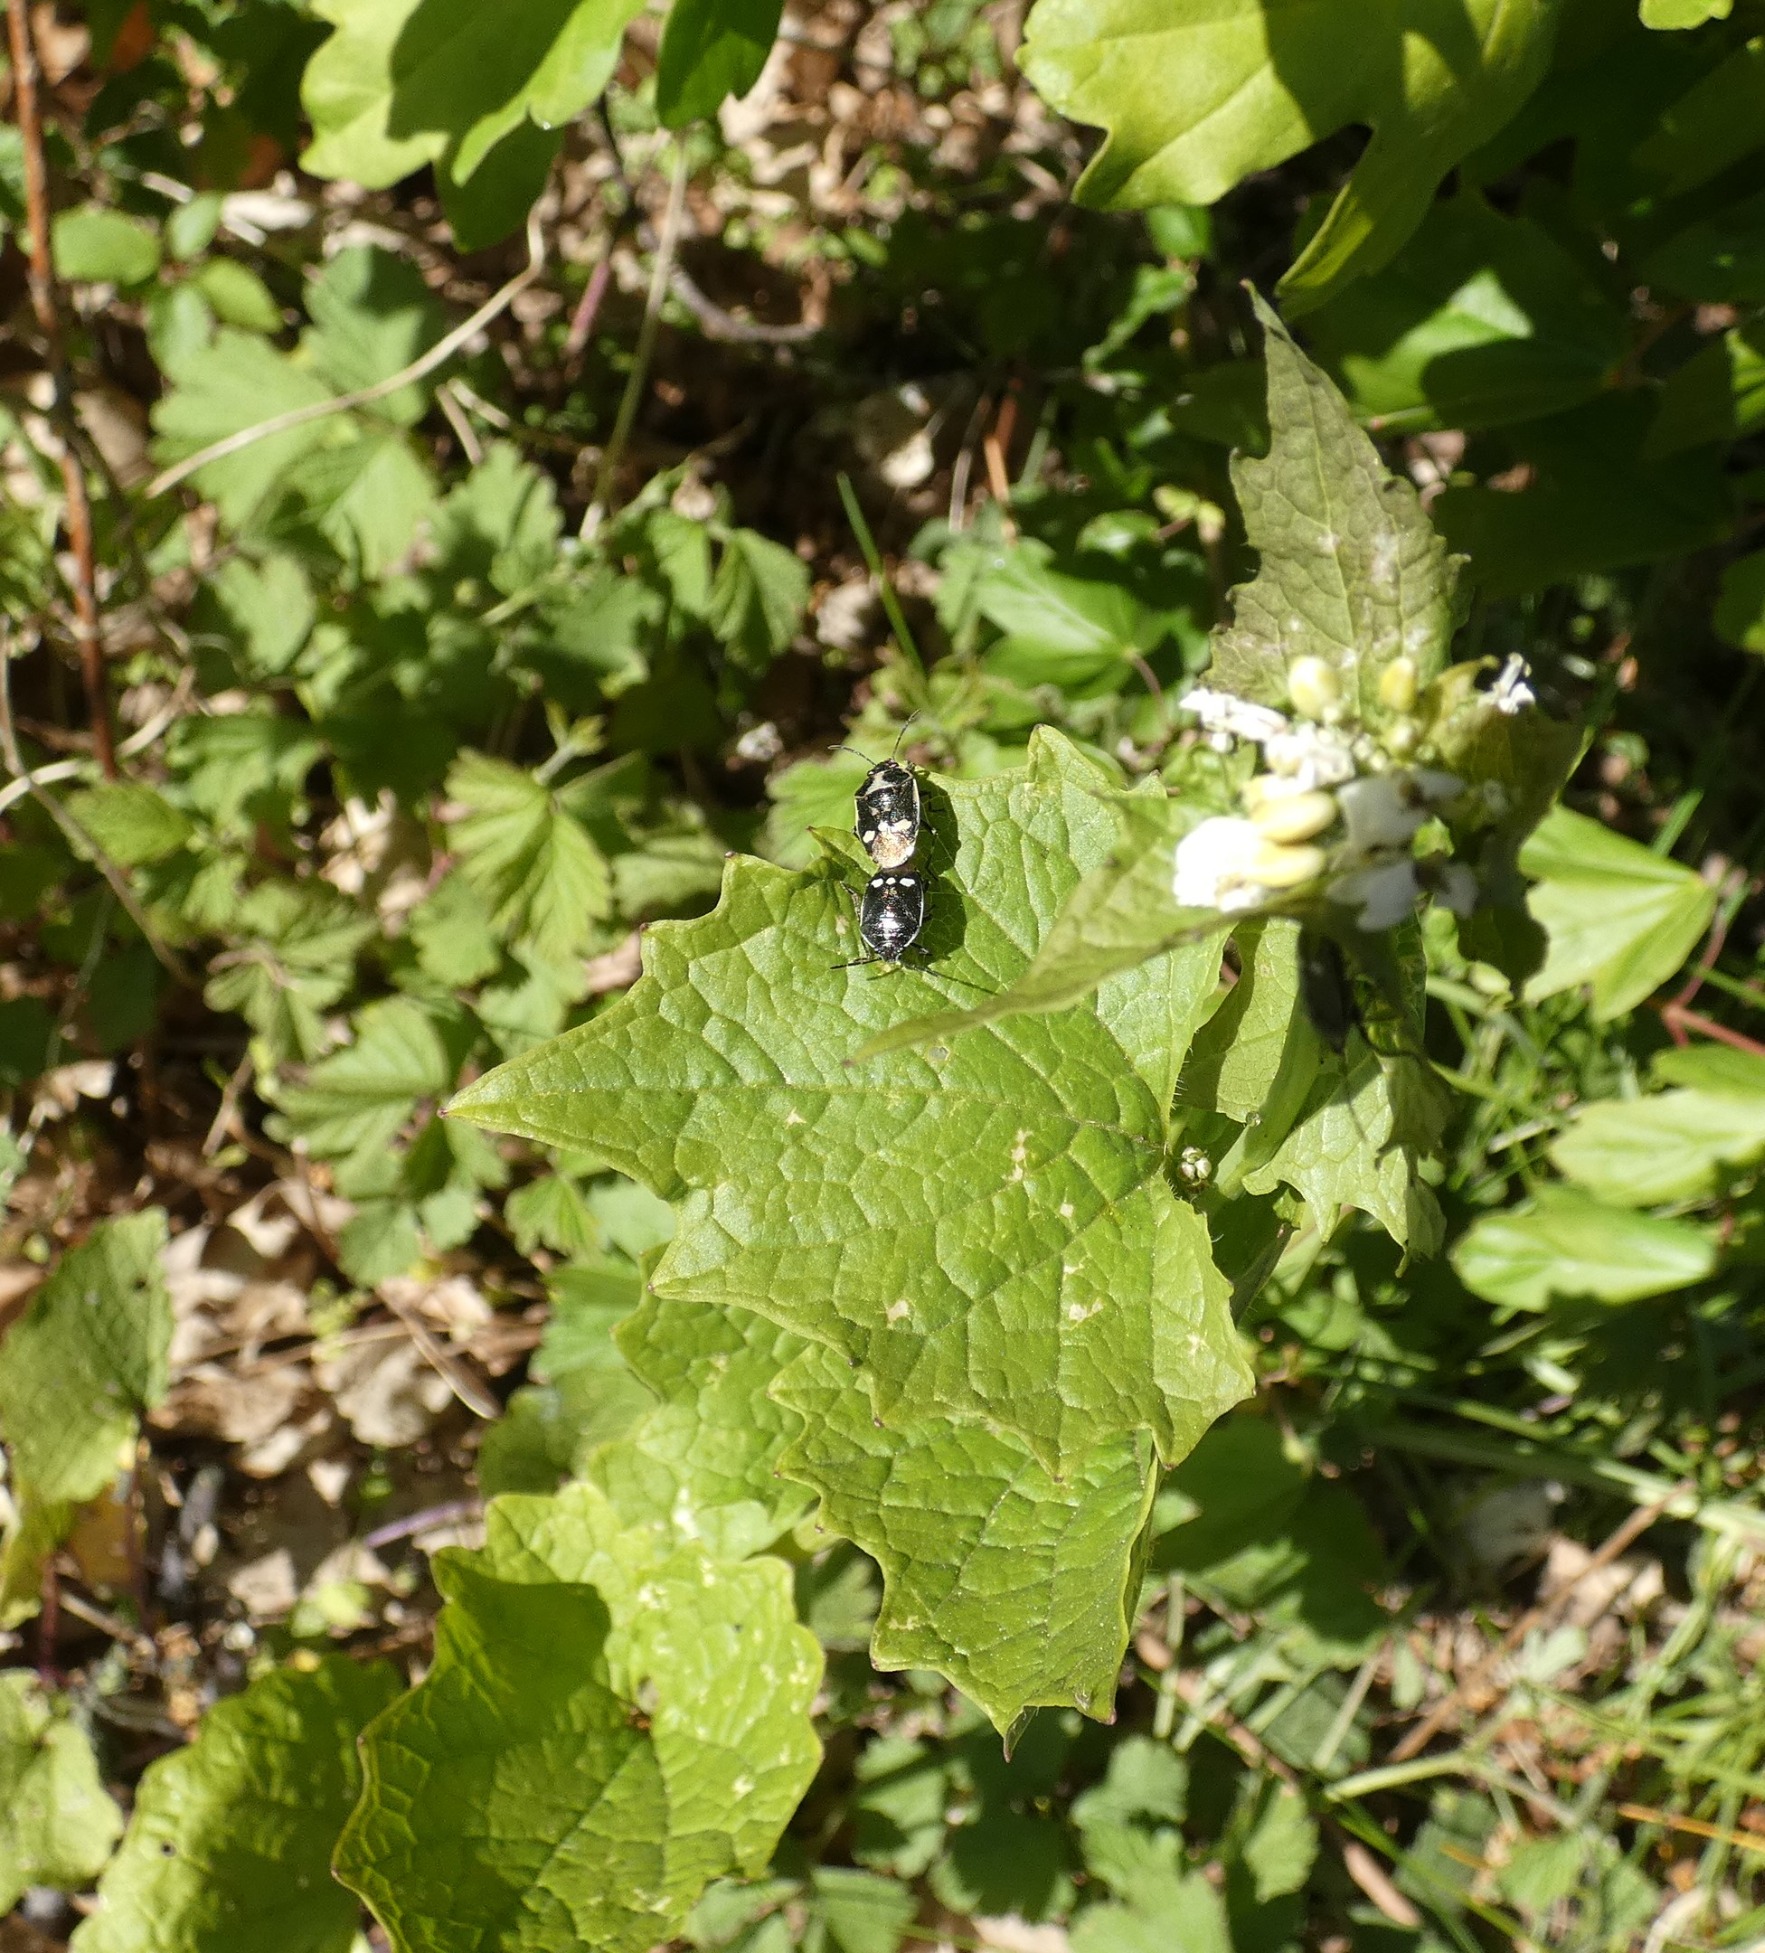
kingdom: Plantae
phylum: Tracheophyta
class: Magnoliopsida
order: Brassicales
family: Brassicaceae
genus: Alliaria
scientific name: Alliaria petiolata
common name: Løgkarse
